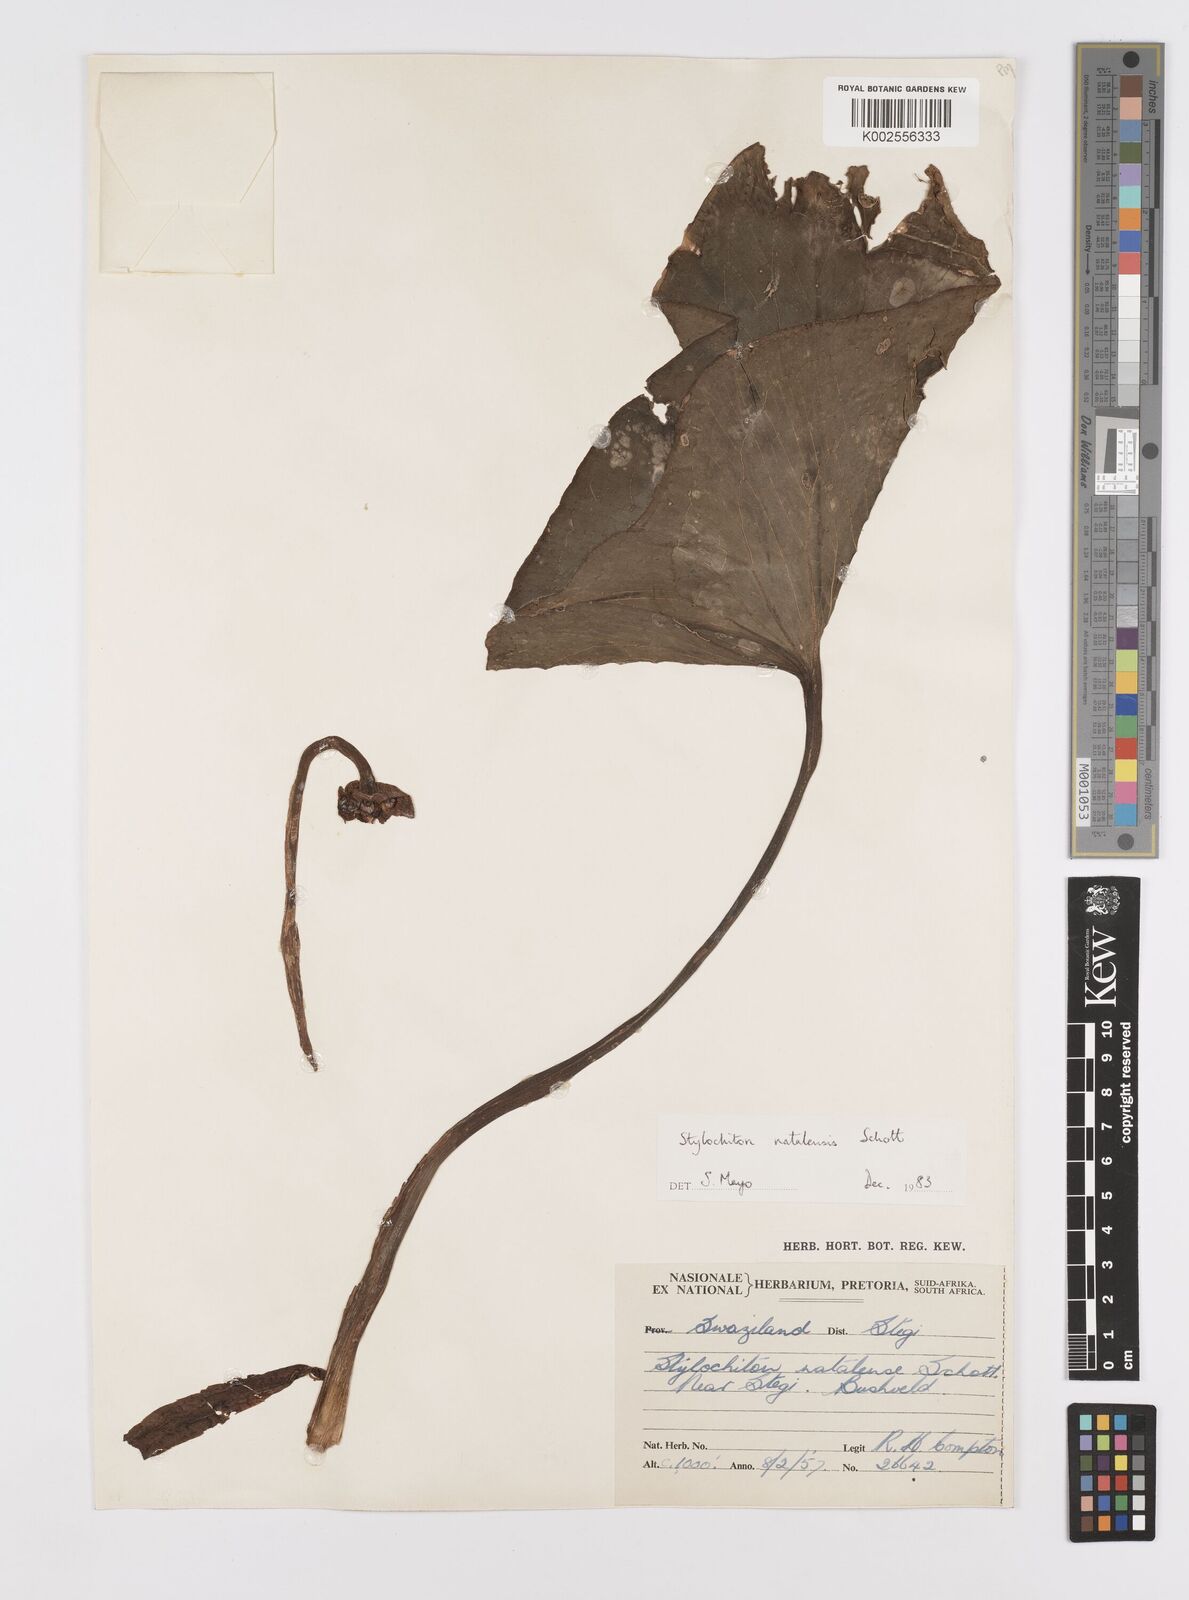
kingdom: Plantae
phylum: Tracheophyta
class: Liliopsida
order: Alismatales
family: Araceae
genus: Stylochaeton
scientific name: Stylochaeton natalense
